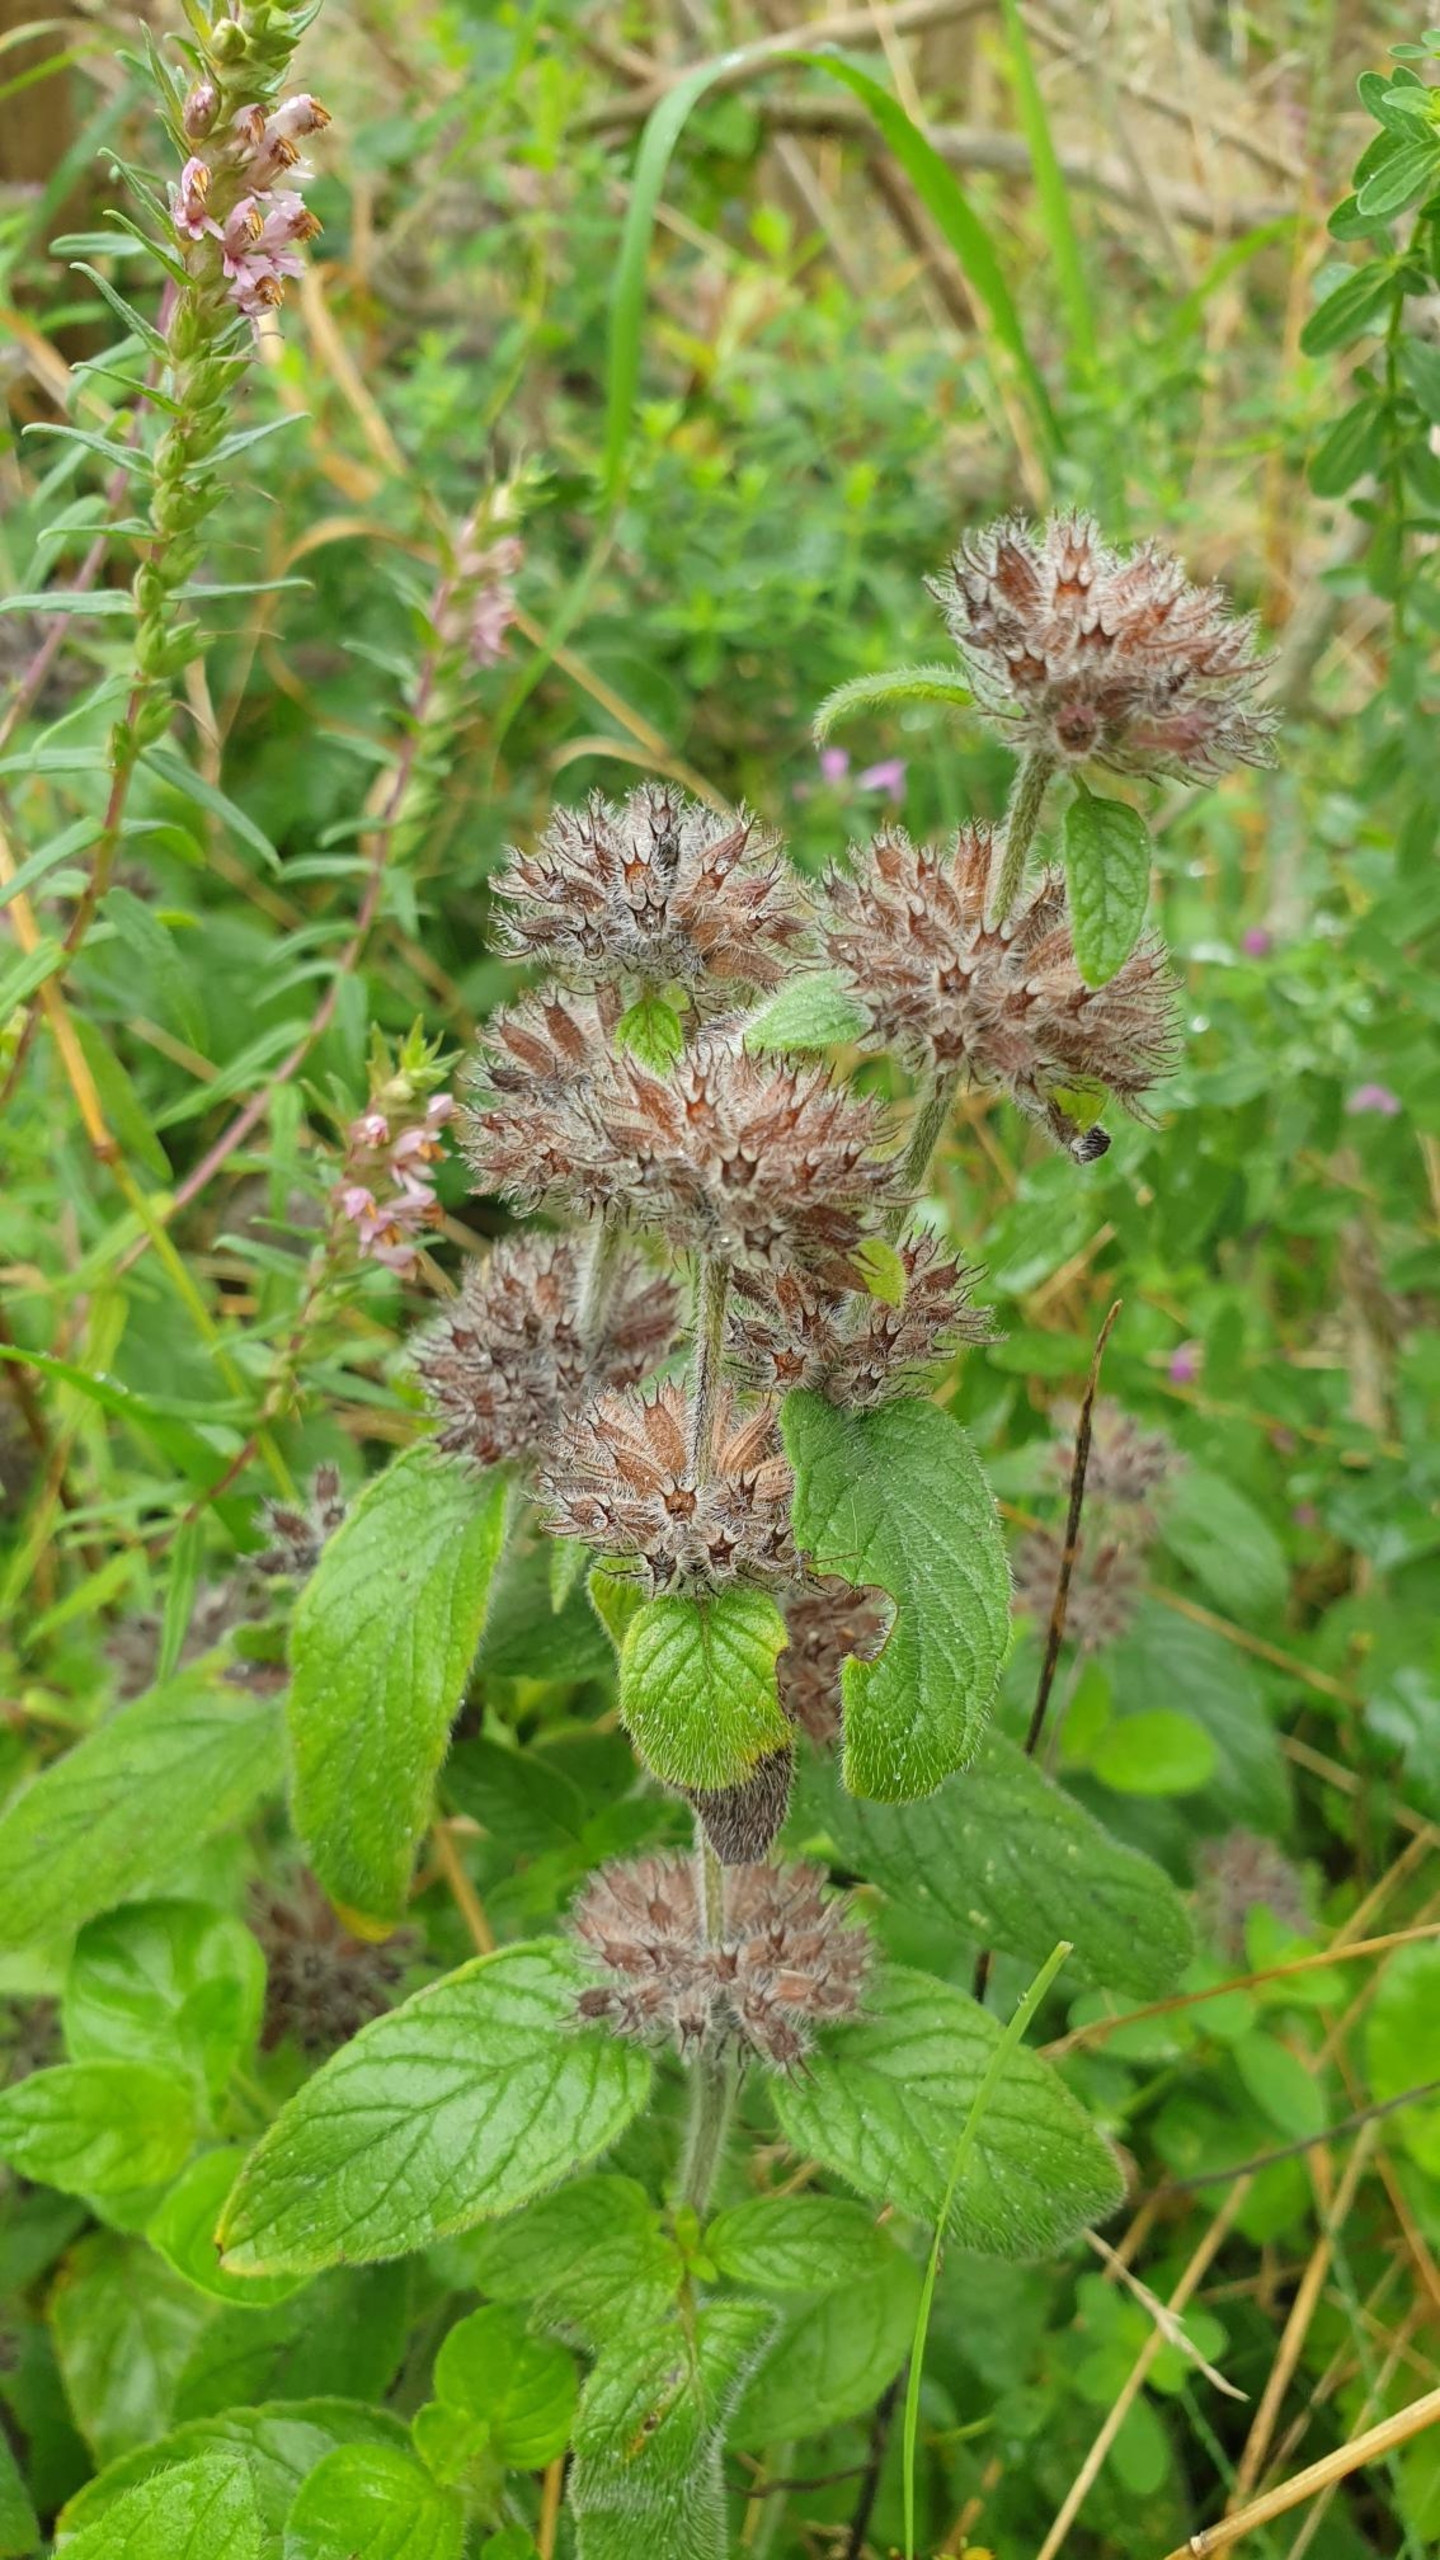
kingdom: Plantae
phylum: Tracheophyta
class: Magnoliopsida
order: Lamiales
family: Lamiaceae
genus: Clinopodium
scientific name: Clinopodium vulgare
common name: Kransbørste
